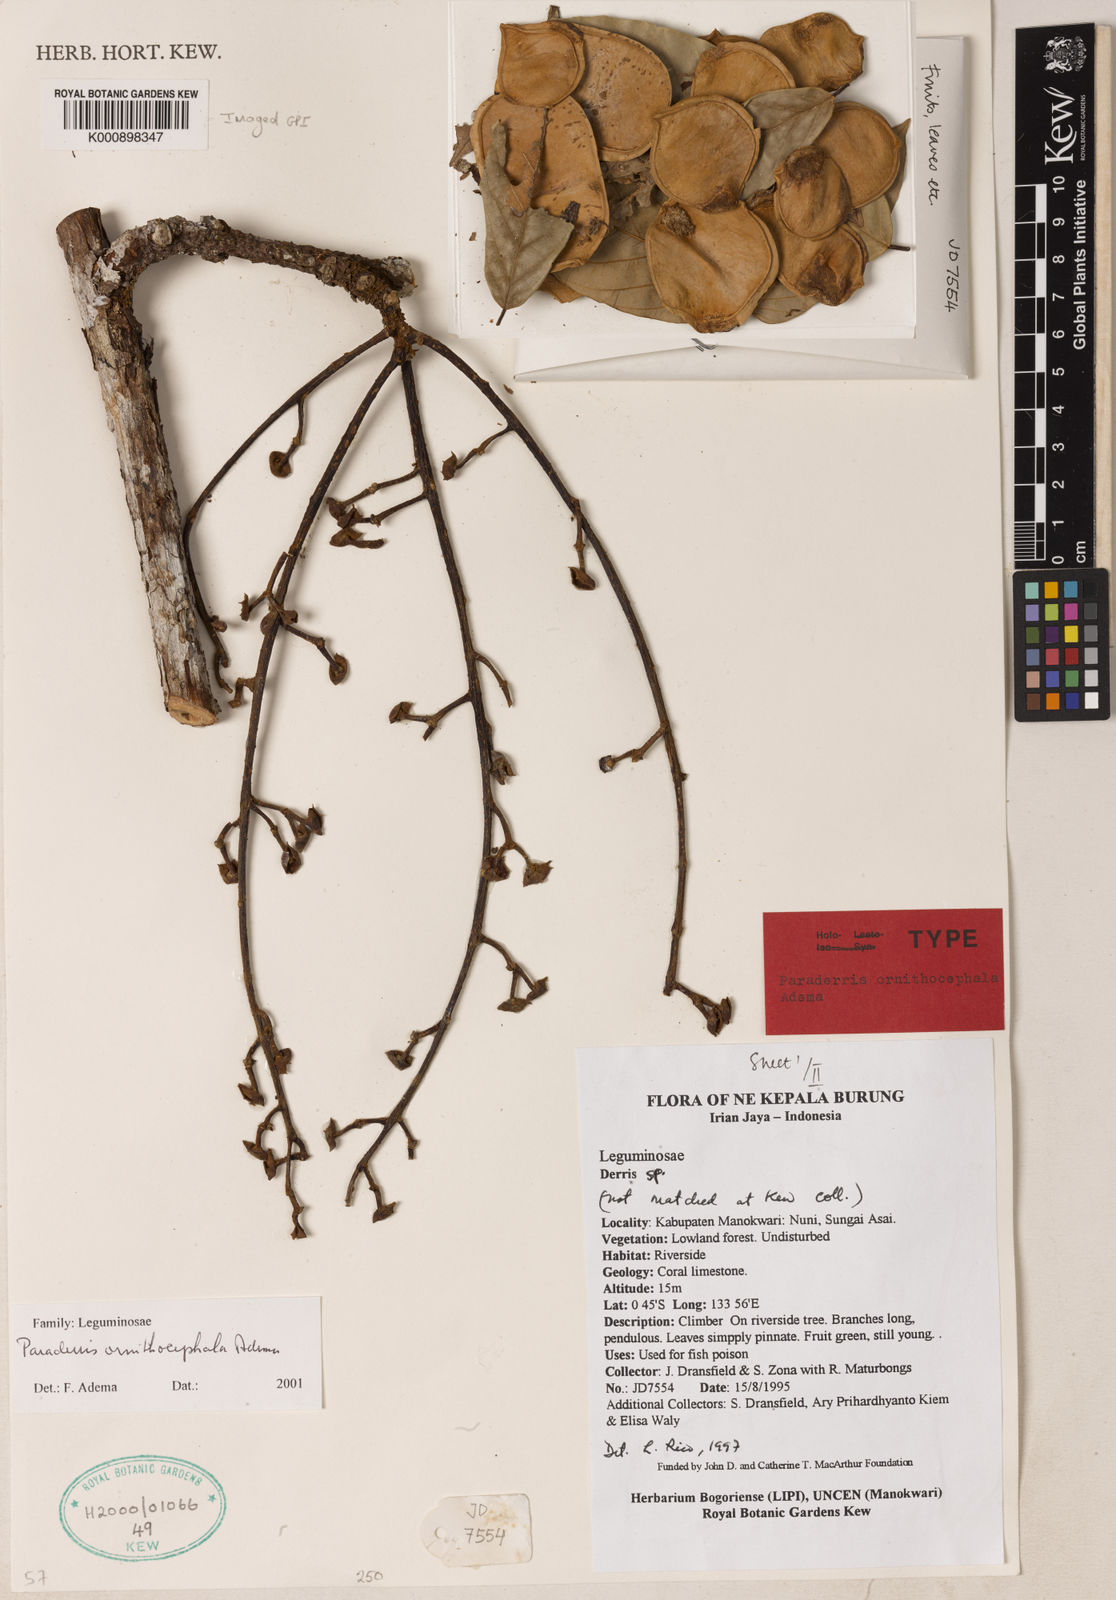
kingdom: Plantae
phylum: Tracheophyta
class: Magnoliopsida
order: Fabales
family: Fabaceae
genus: Derris
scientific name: Derris ornithocephala
